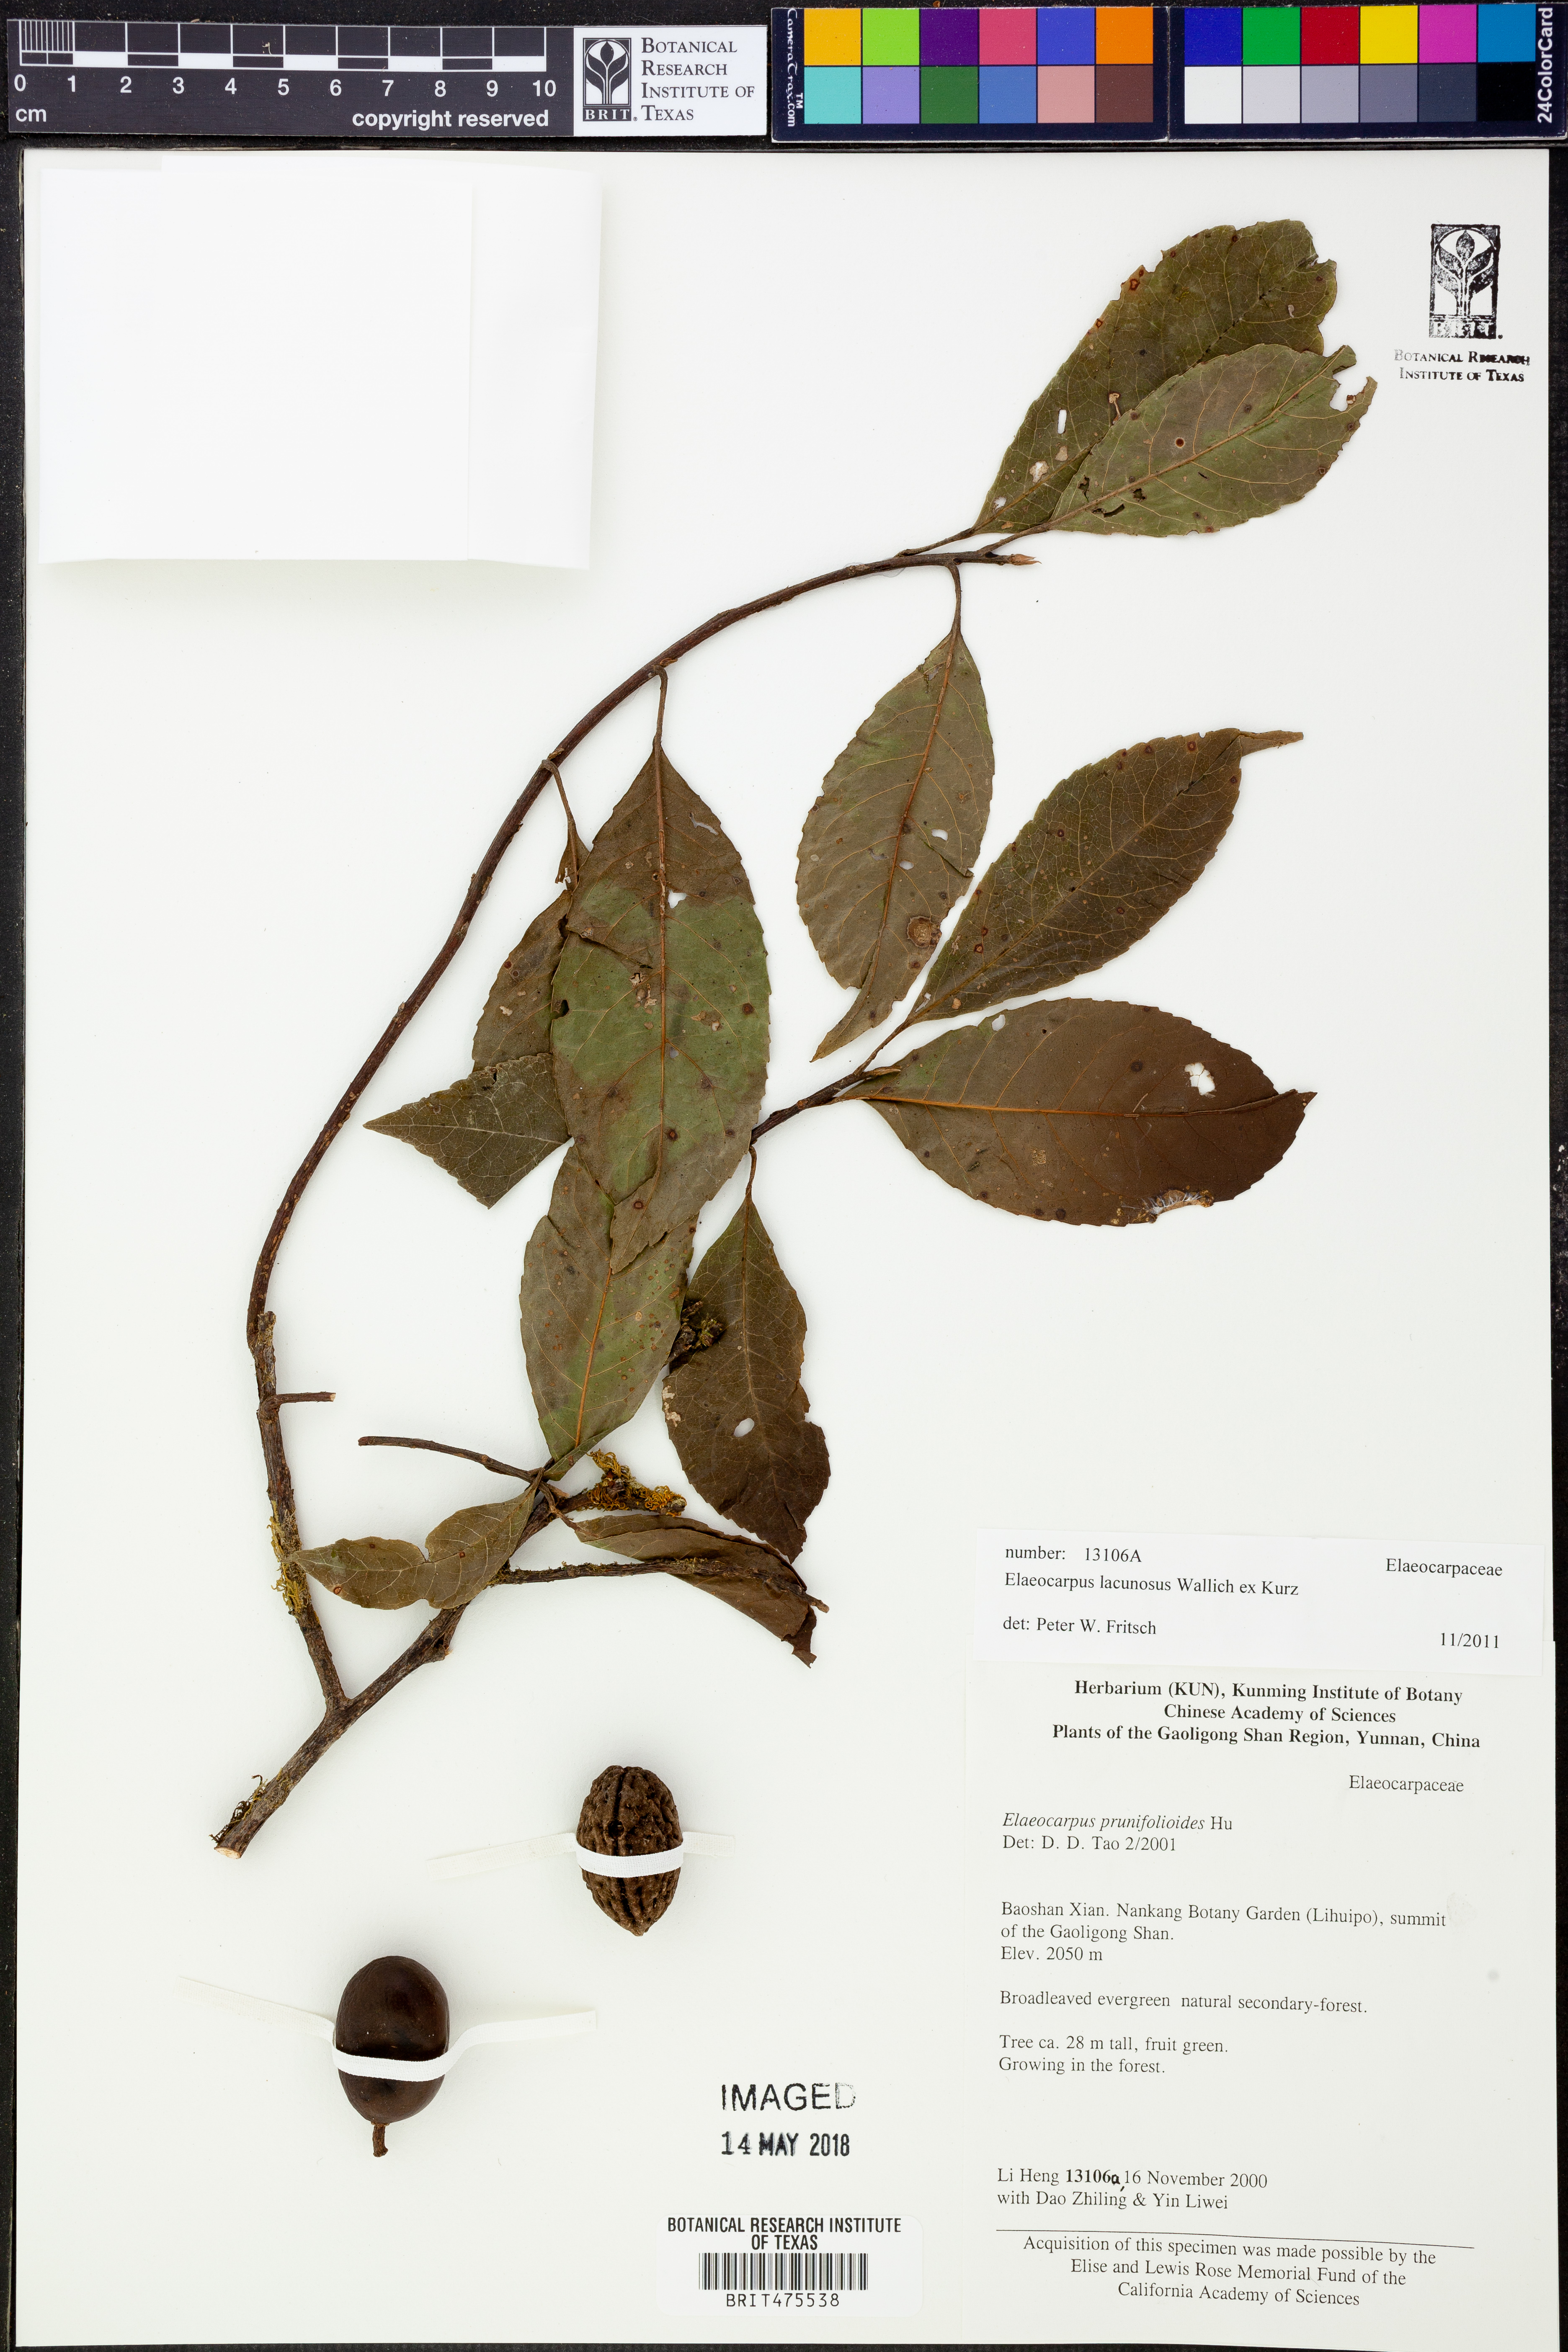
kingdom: Plantae
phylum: Tracheophyta
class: Magnoliopsida
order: Oxalidales
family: Elaeocarpaceae
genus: Elaeocarpus
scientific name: Elaeocarpus lanceifolius
